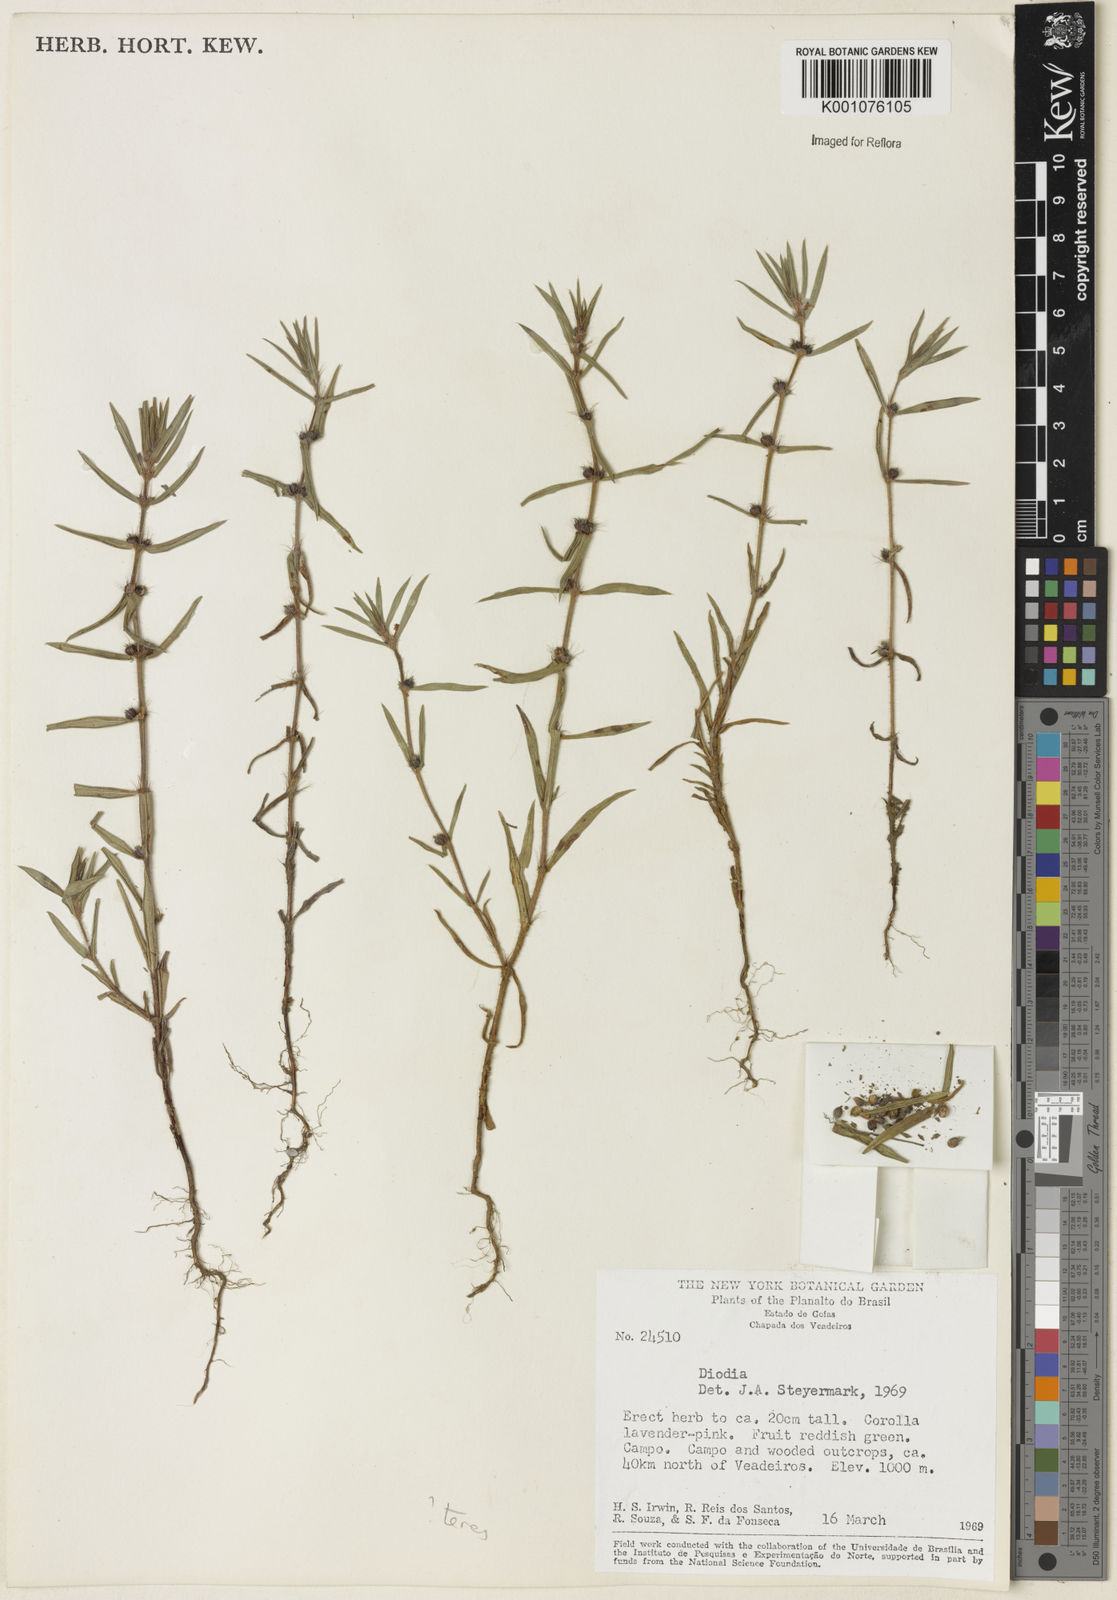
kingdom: Plantae
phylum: Tracheophyta
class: Magnoliopsida
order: Gentianales
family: Rubiaceae
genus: Hexasepalum
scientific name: Hexasepalum teres
